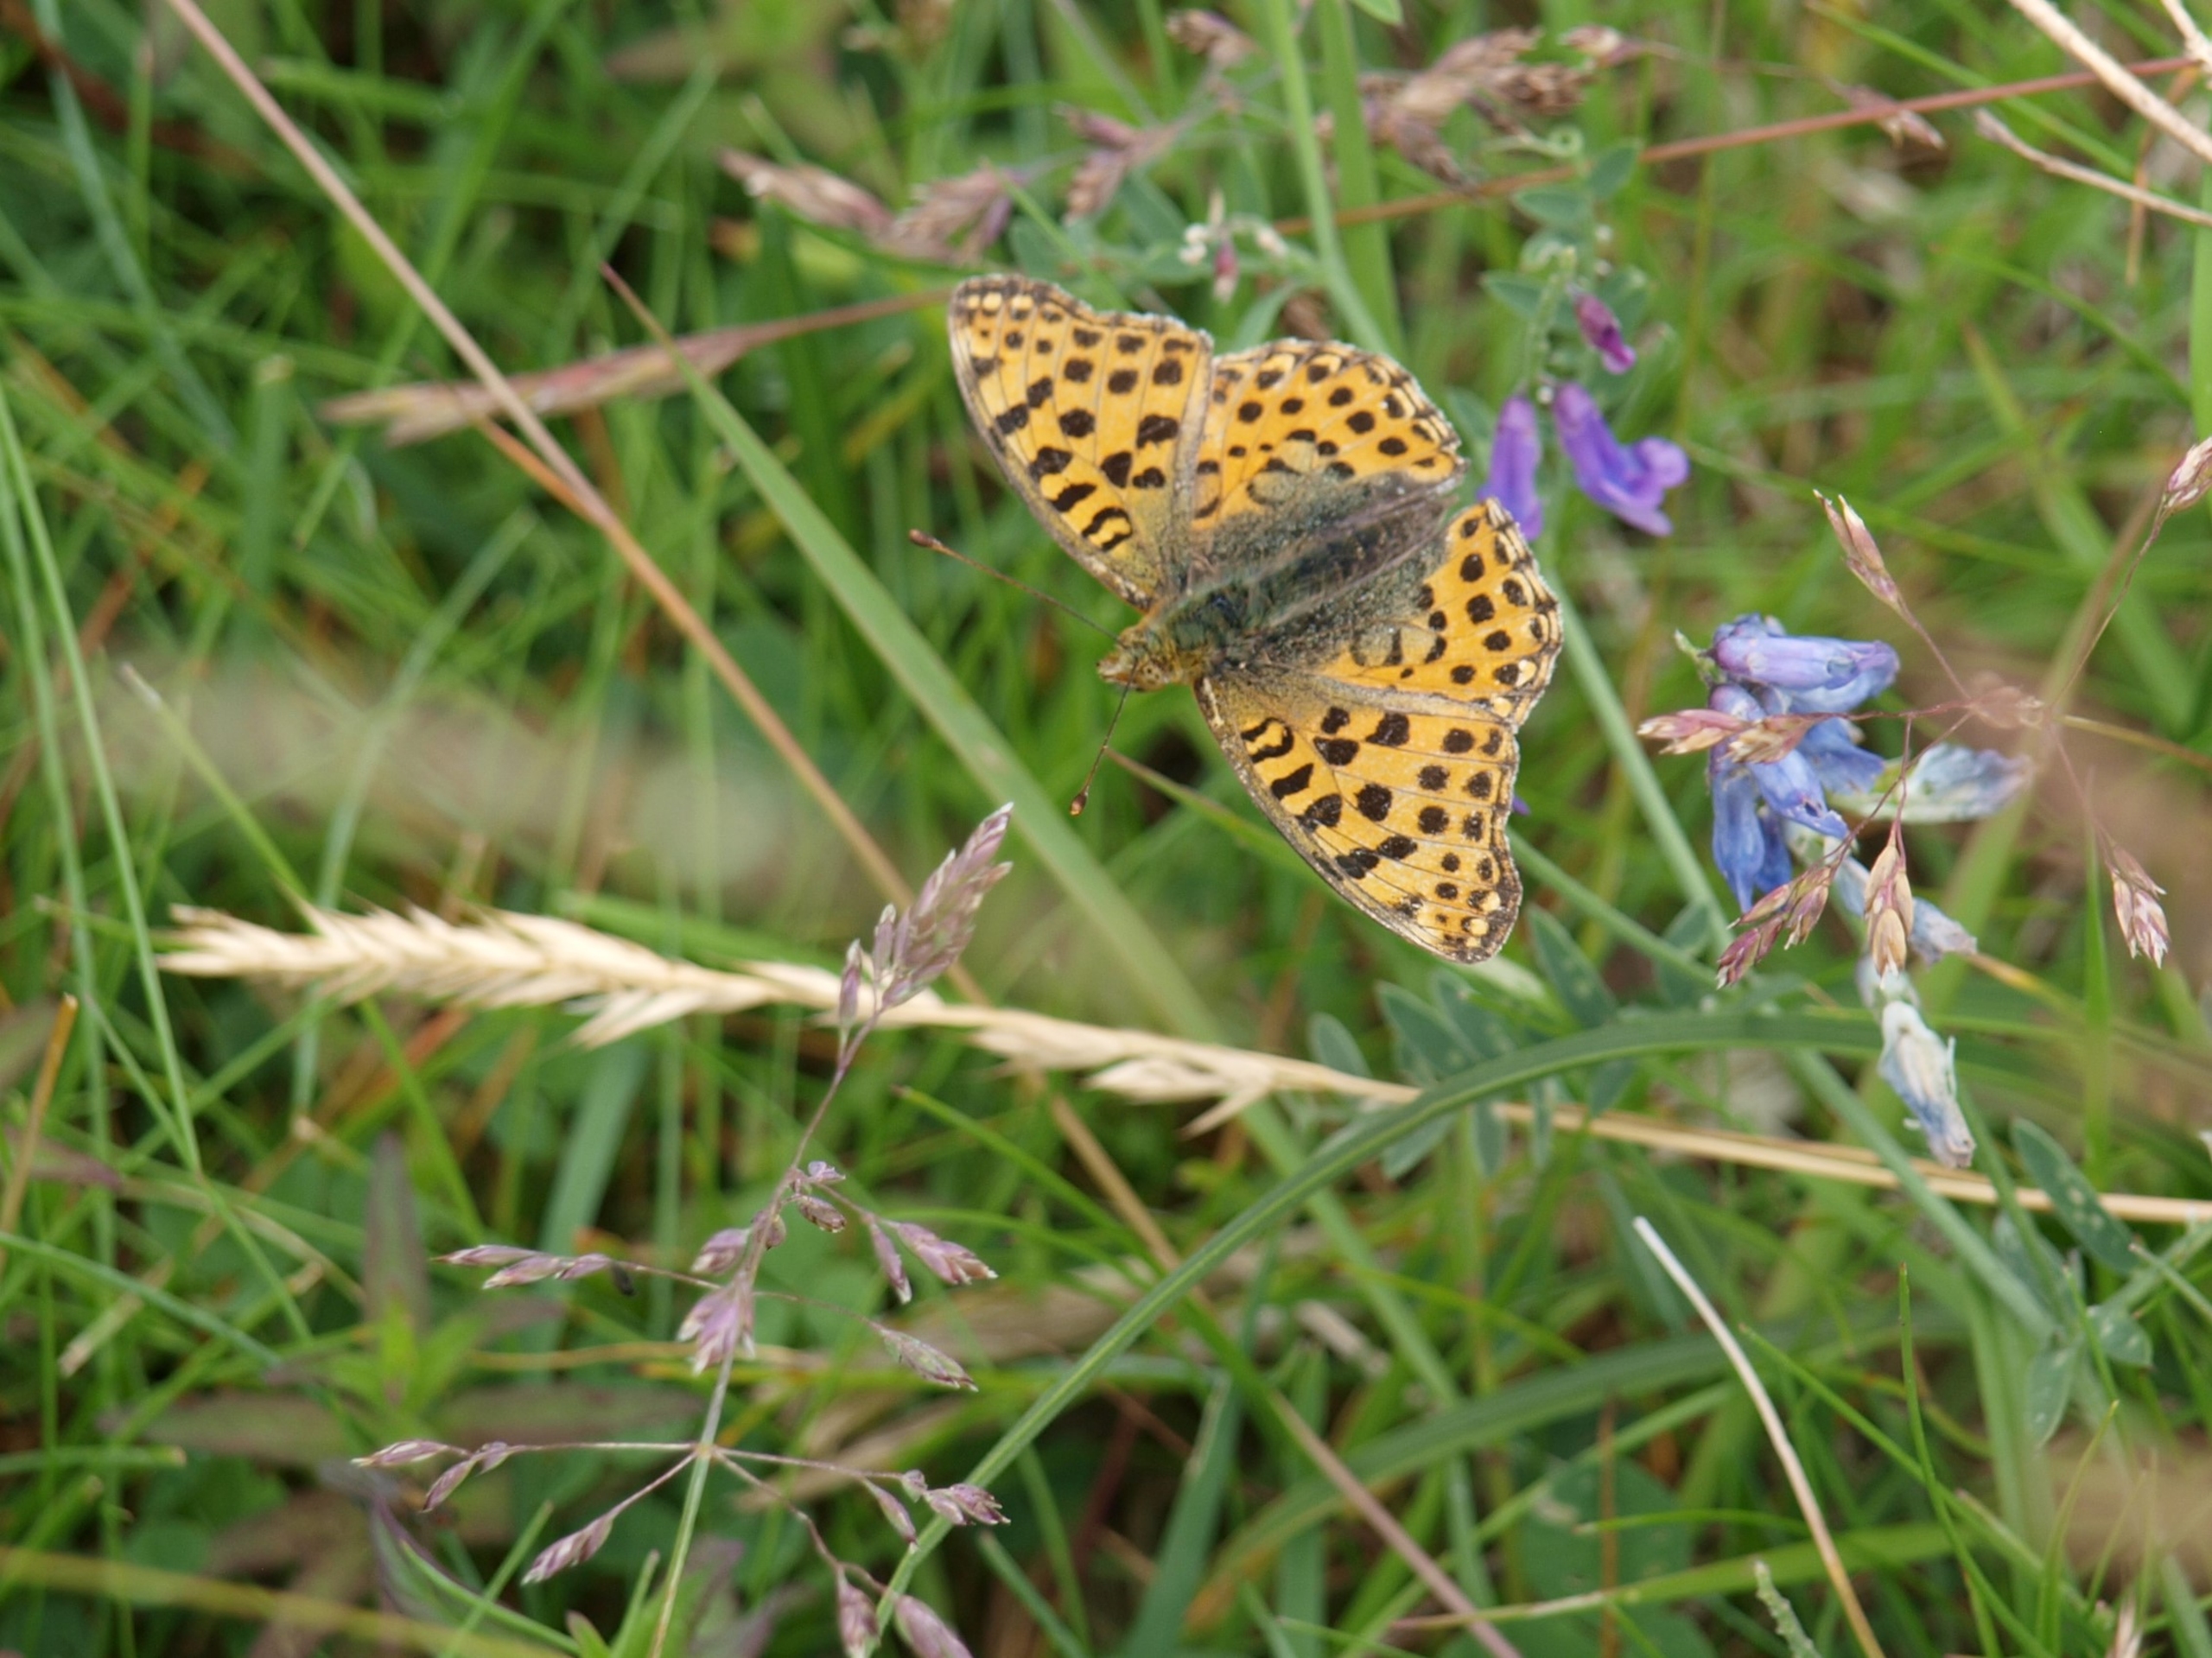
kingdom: Animalia
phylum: Arthropoda
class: Insecta
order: Lepidoptera
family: Nymphalidae
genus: Issoria
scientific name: Issoria lathonia
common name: Storplettet perlemorsommerfugl
